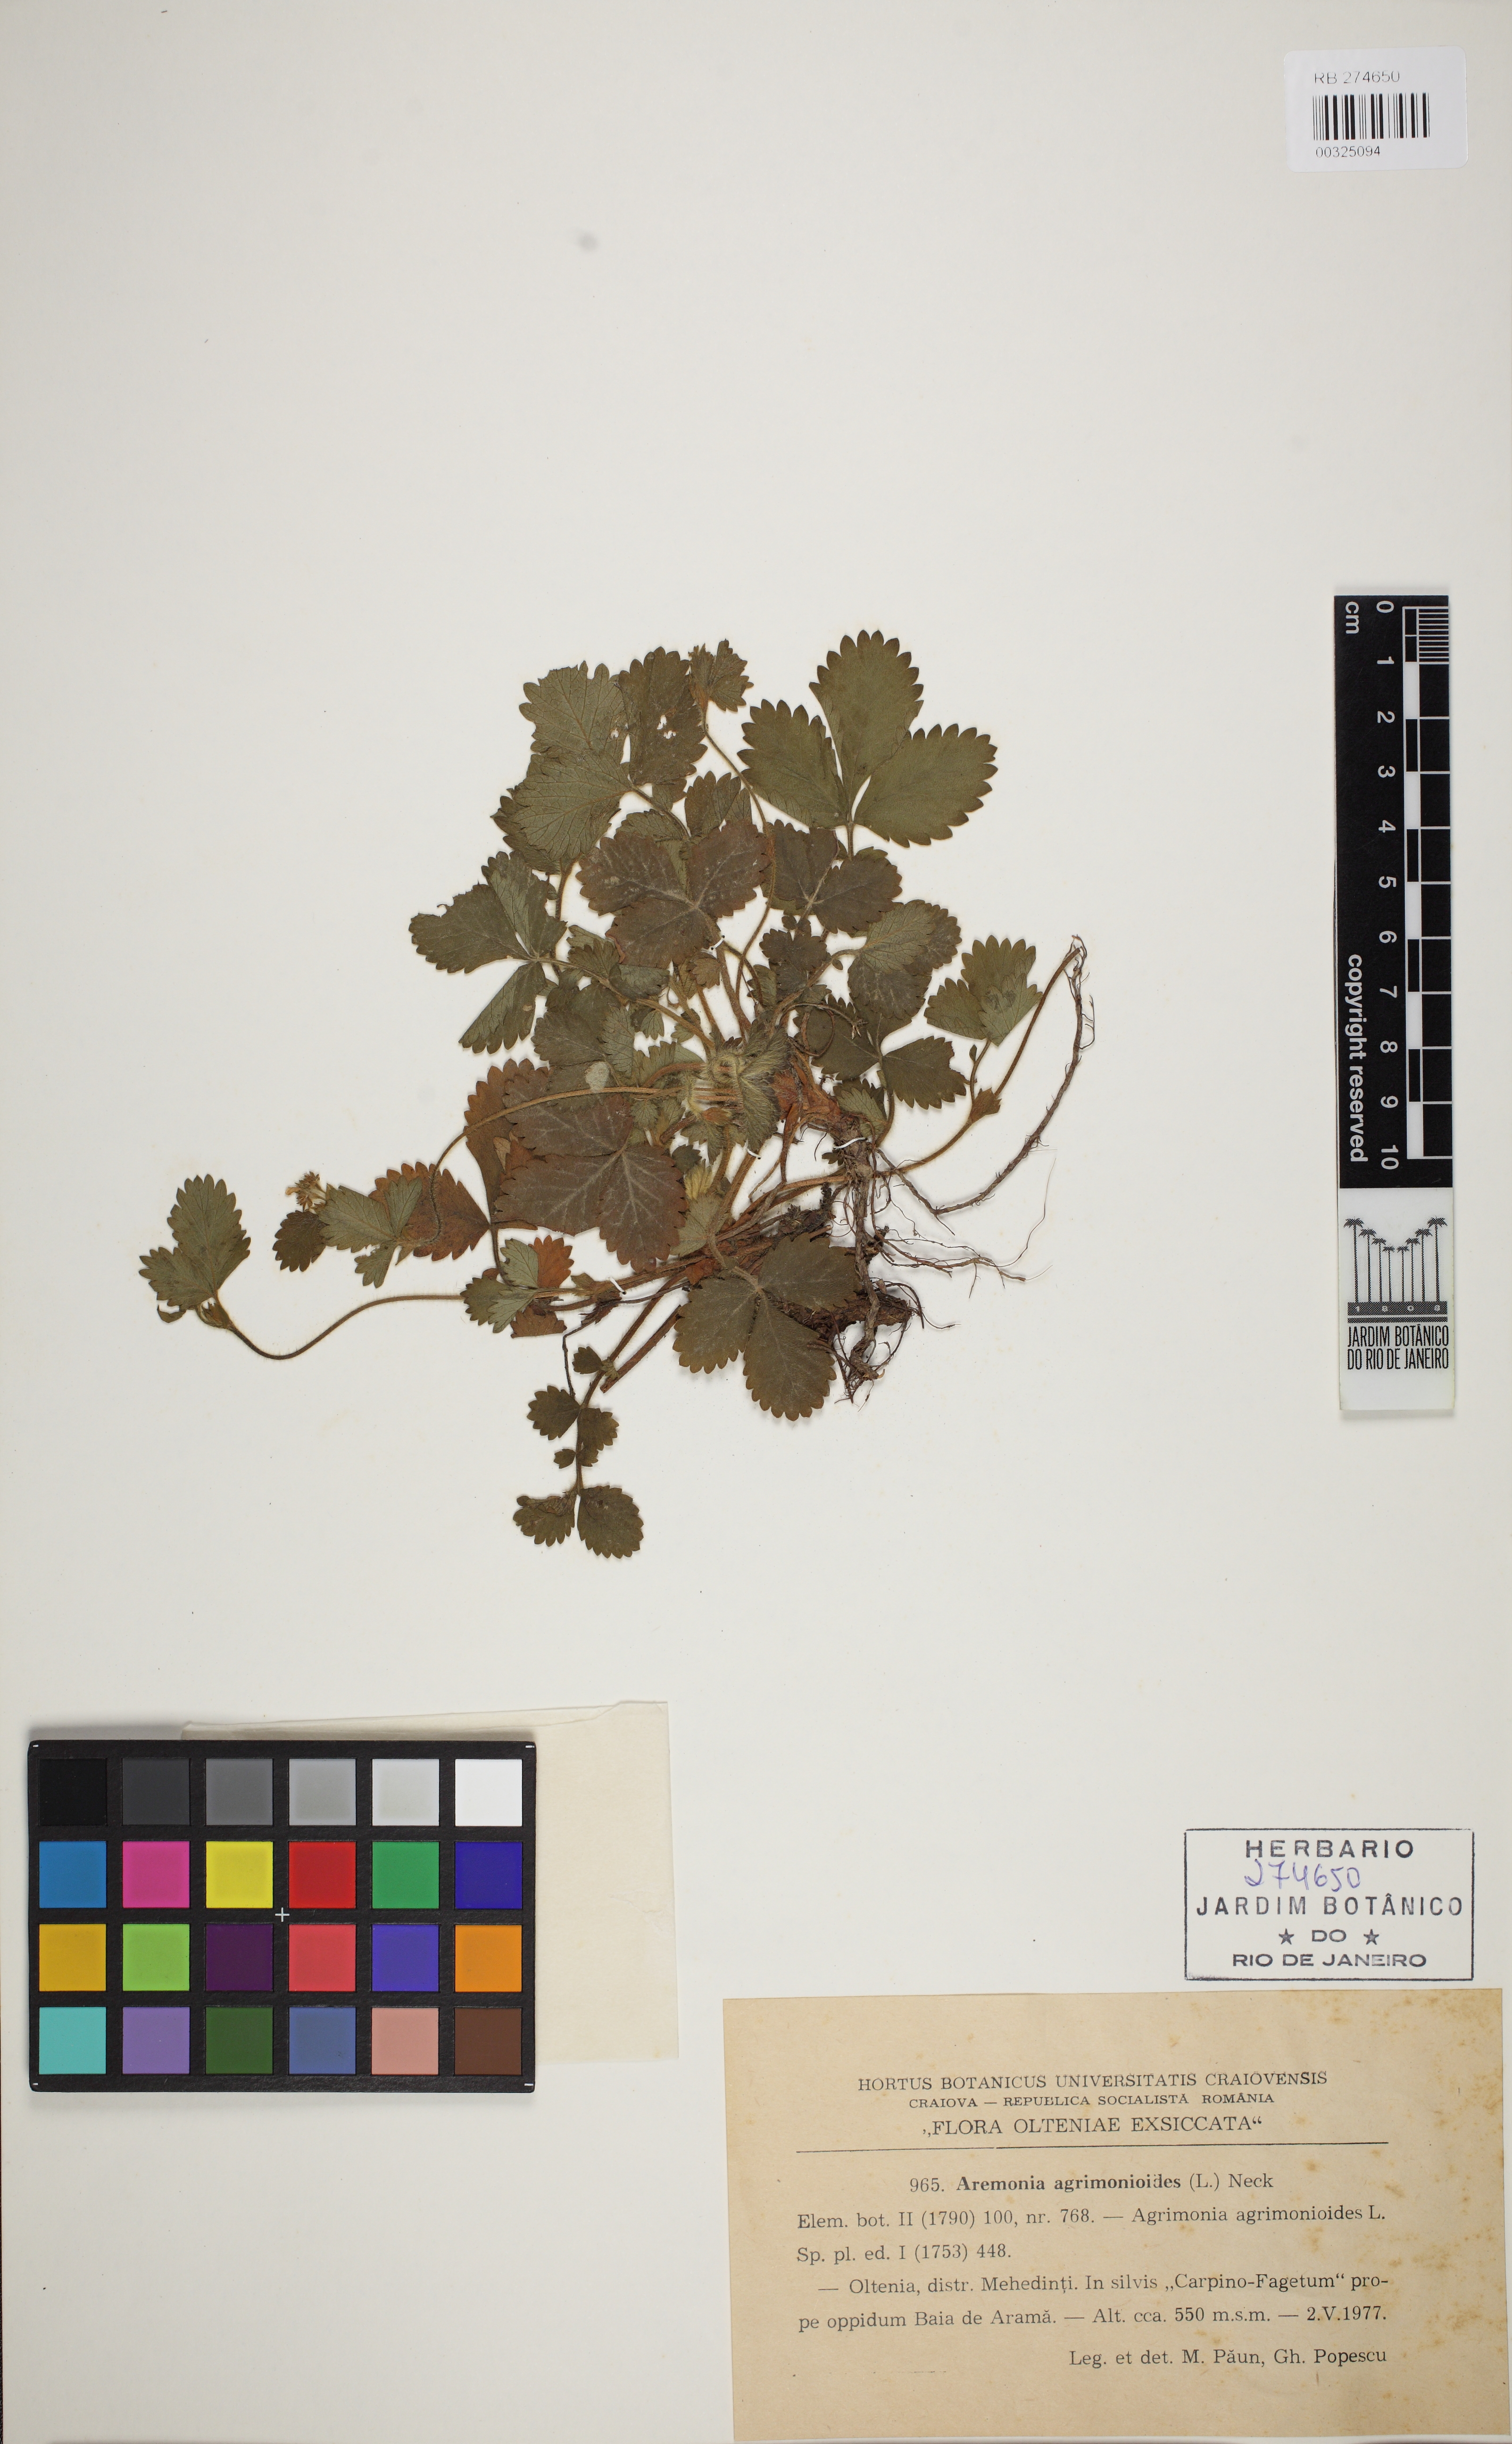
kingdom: Plantae
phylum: Tracheophyta
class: Magnoliopsida
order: Rosales
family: Rosaceae
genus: Aremonia
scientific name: Aremonia agrimonoides
